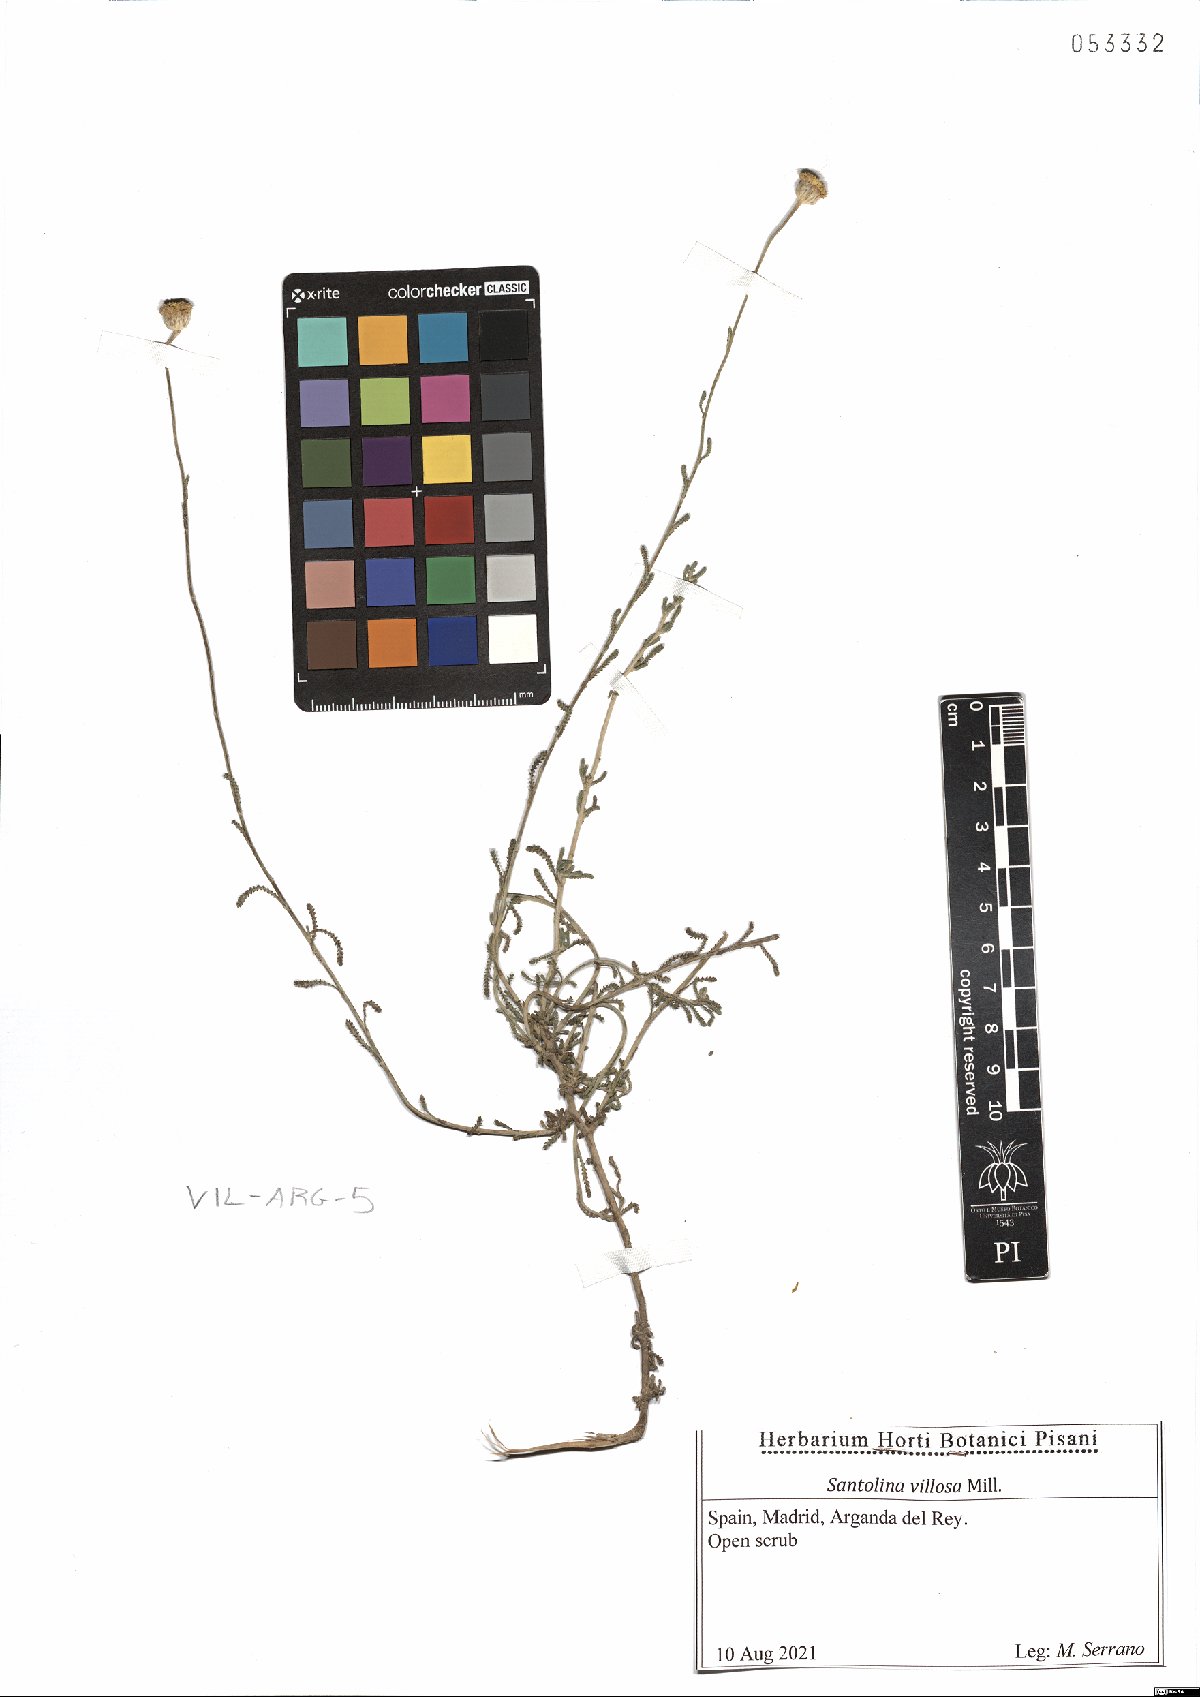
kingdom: Plantae
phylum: Tracheophyta
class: Magnoliopsida
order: Asterales
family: Asteraceae
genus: Santolina
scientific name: Santolina chamaecyparissus
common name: Lavender-cotton
